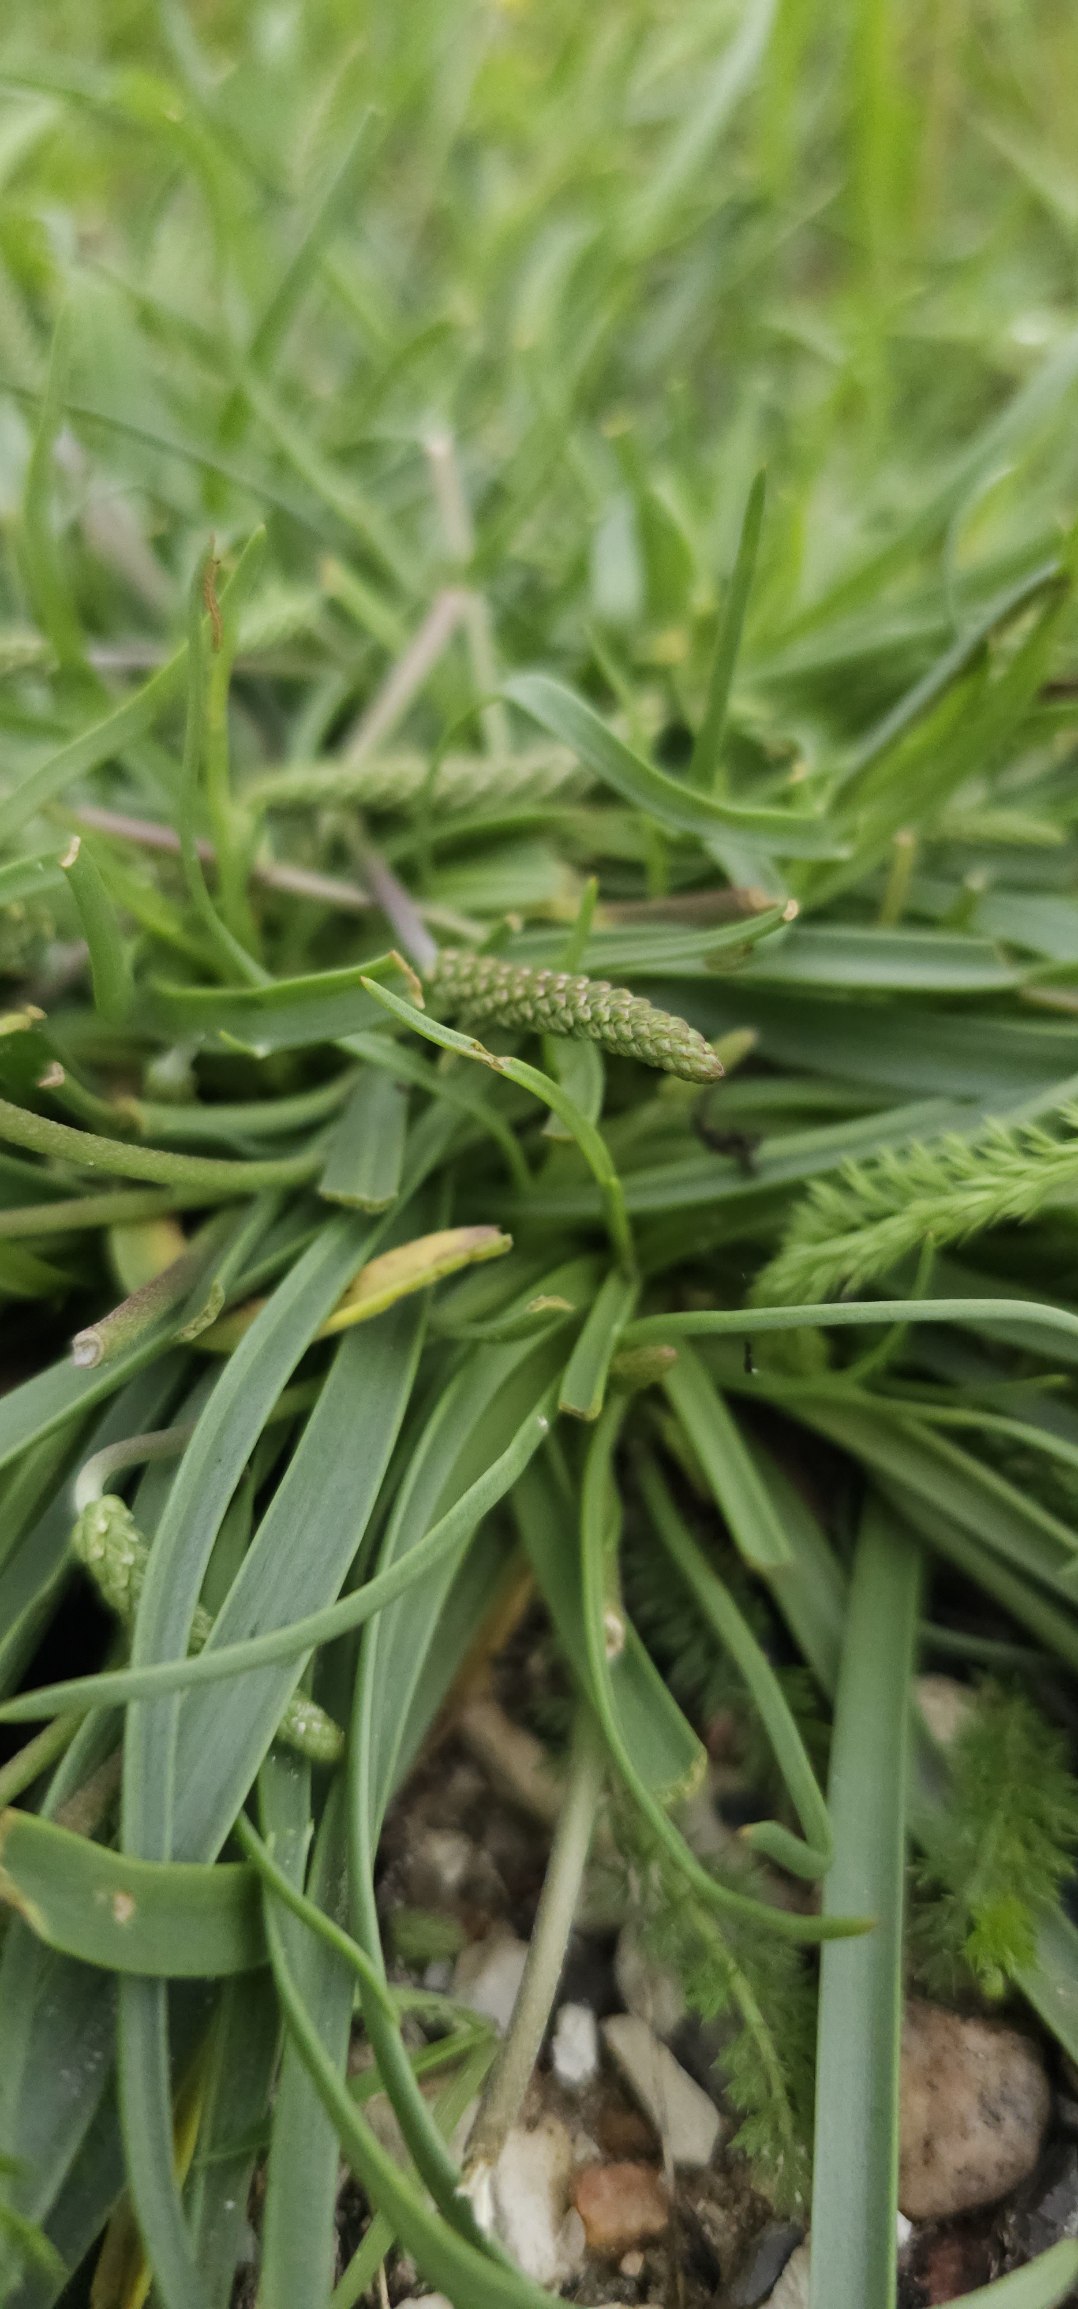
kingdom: Plantae
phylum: Tracheophyta
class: Magnoliopsida
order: Lamiales
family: Plantaginaceae
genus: Plantago
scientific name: Plantago maritima
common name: Strand-vejbred
